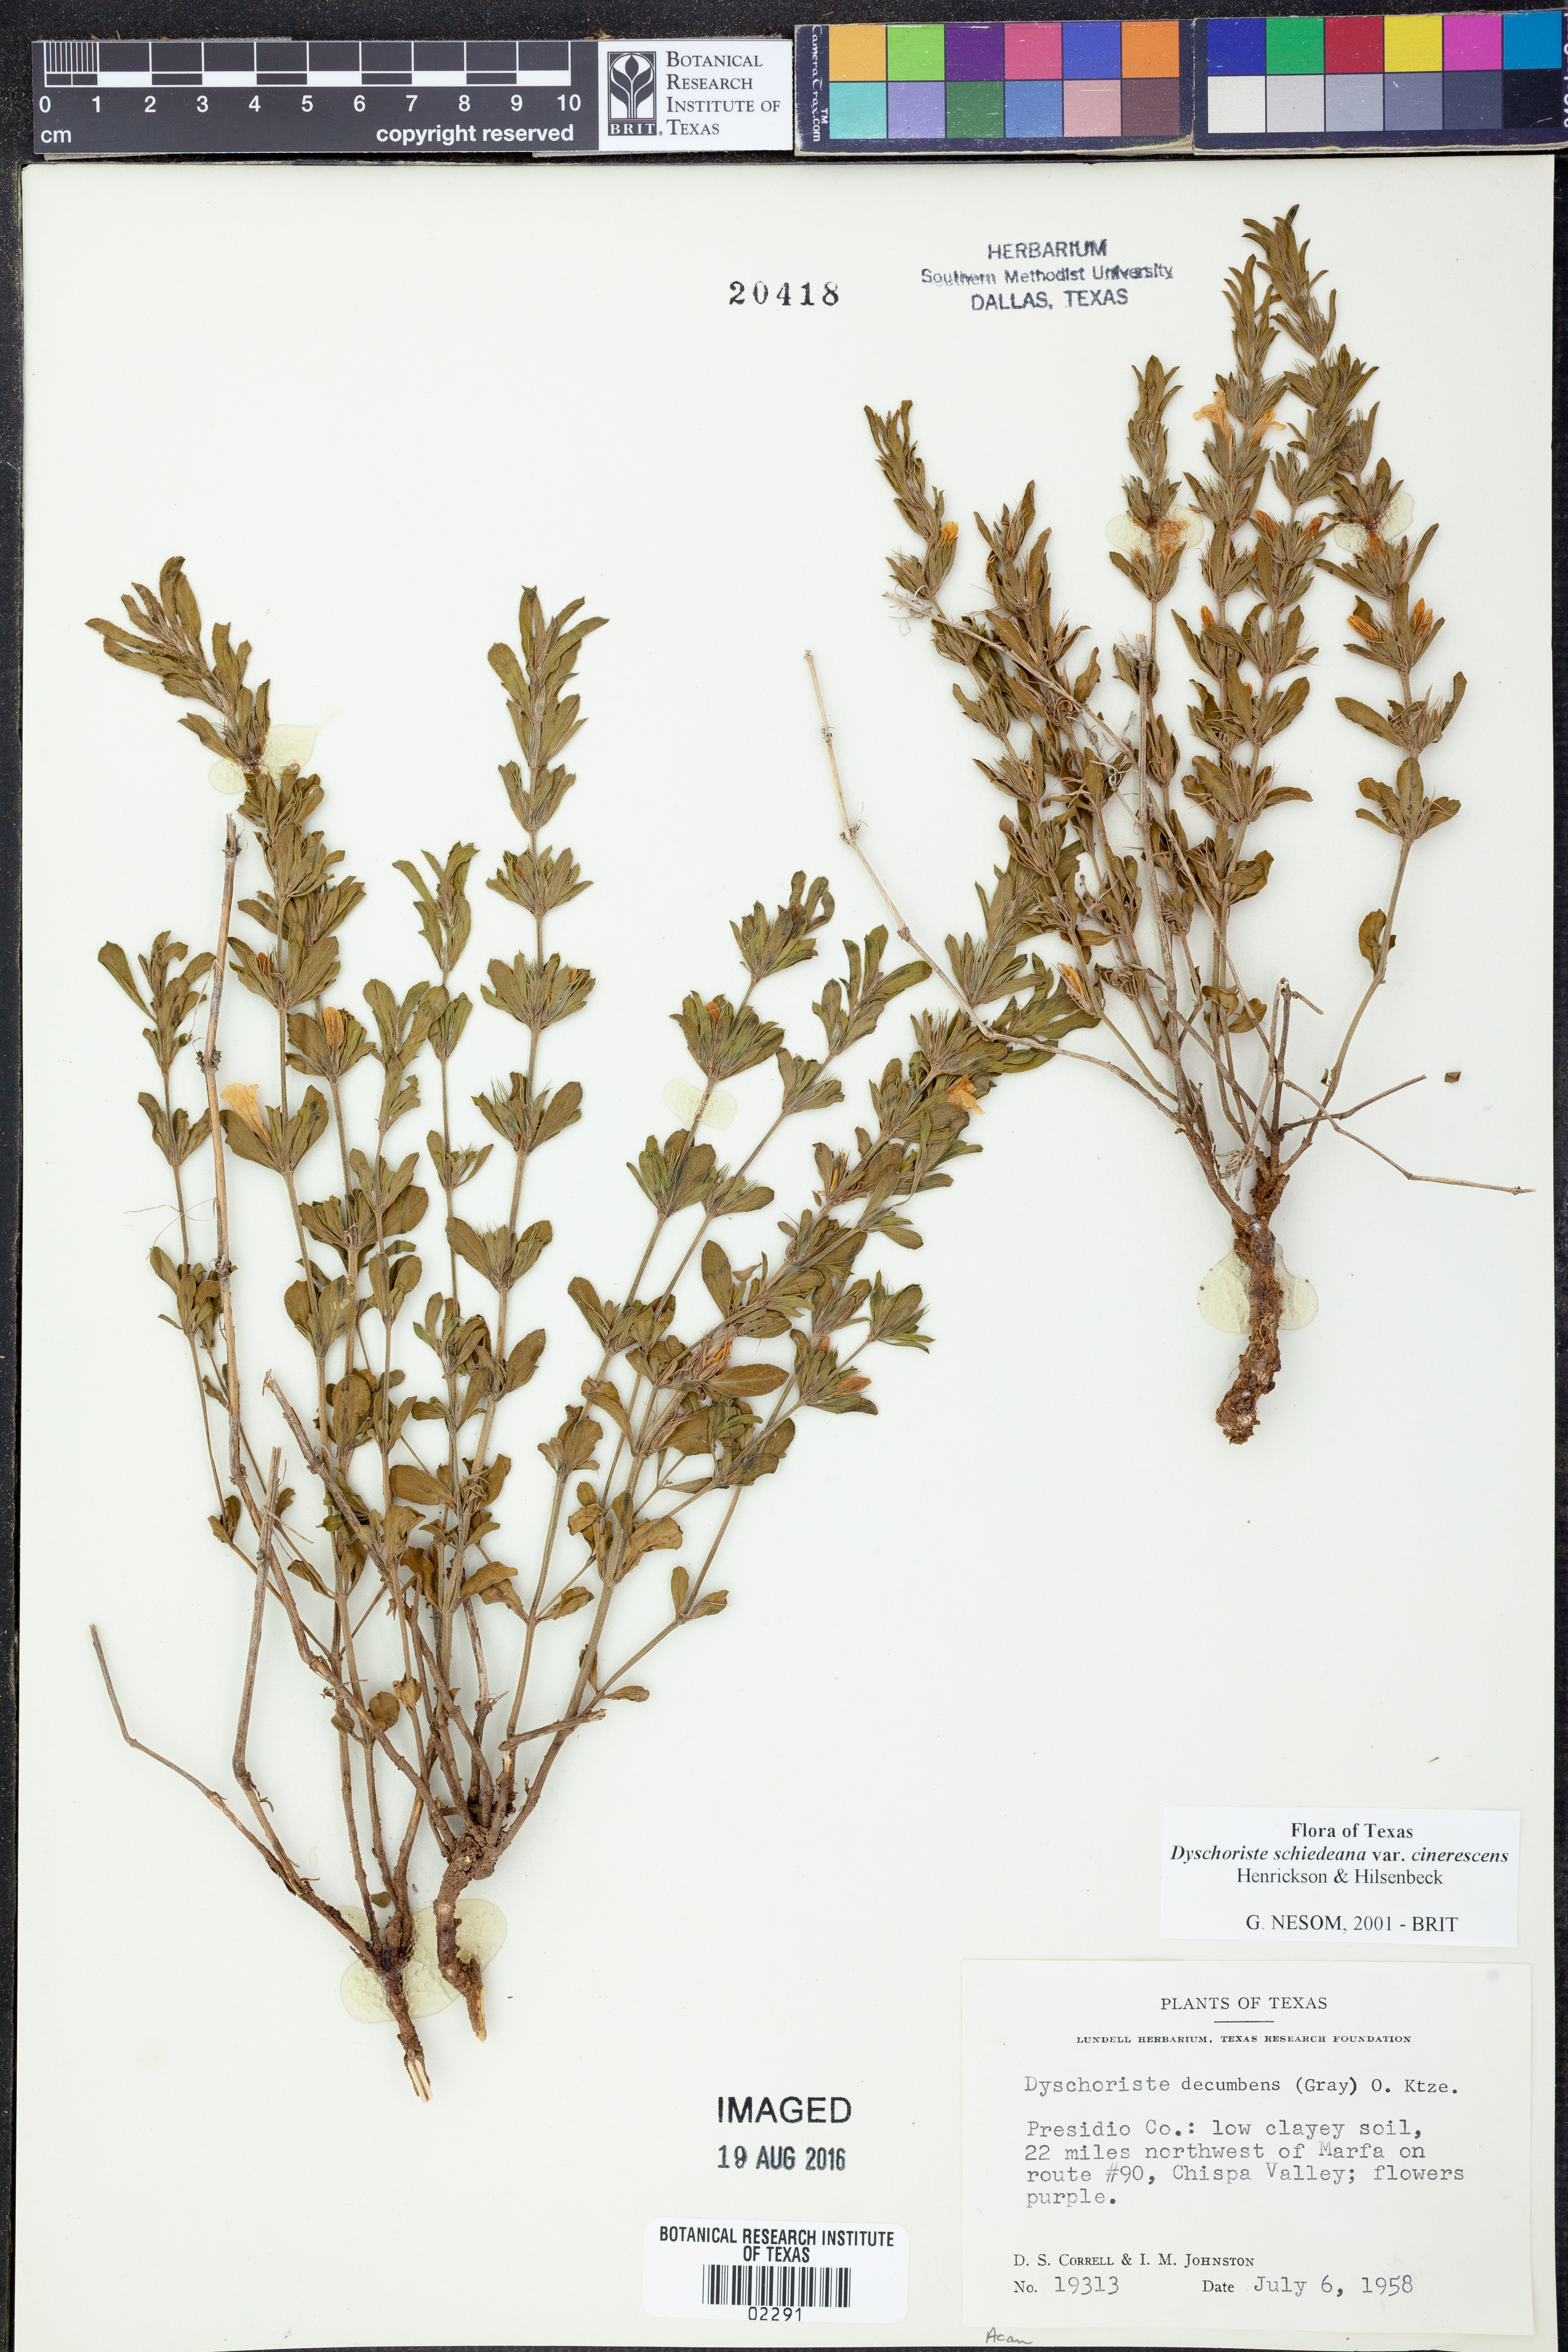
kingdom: Plantae
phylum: Tracheophyta
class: Magnoliopsida
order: Lamiales
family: Acanthaceae
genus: Dyschoriste
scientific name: Dyschoriste cinerascens
